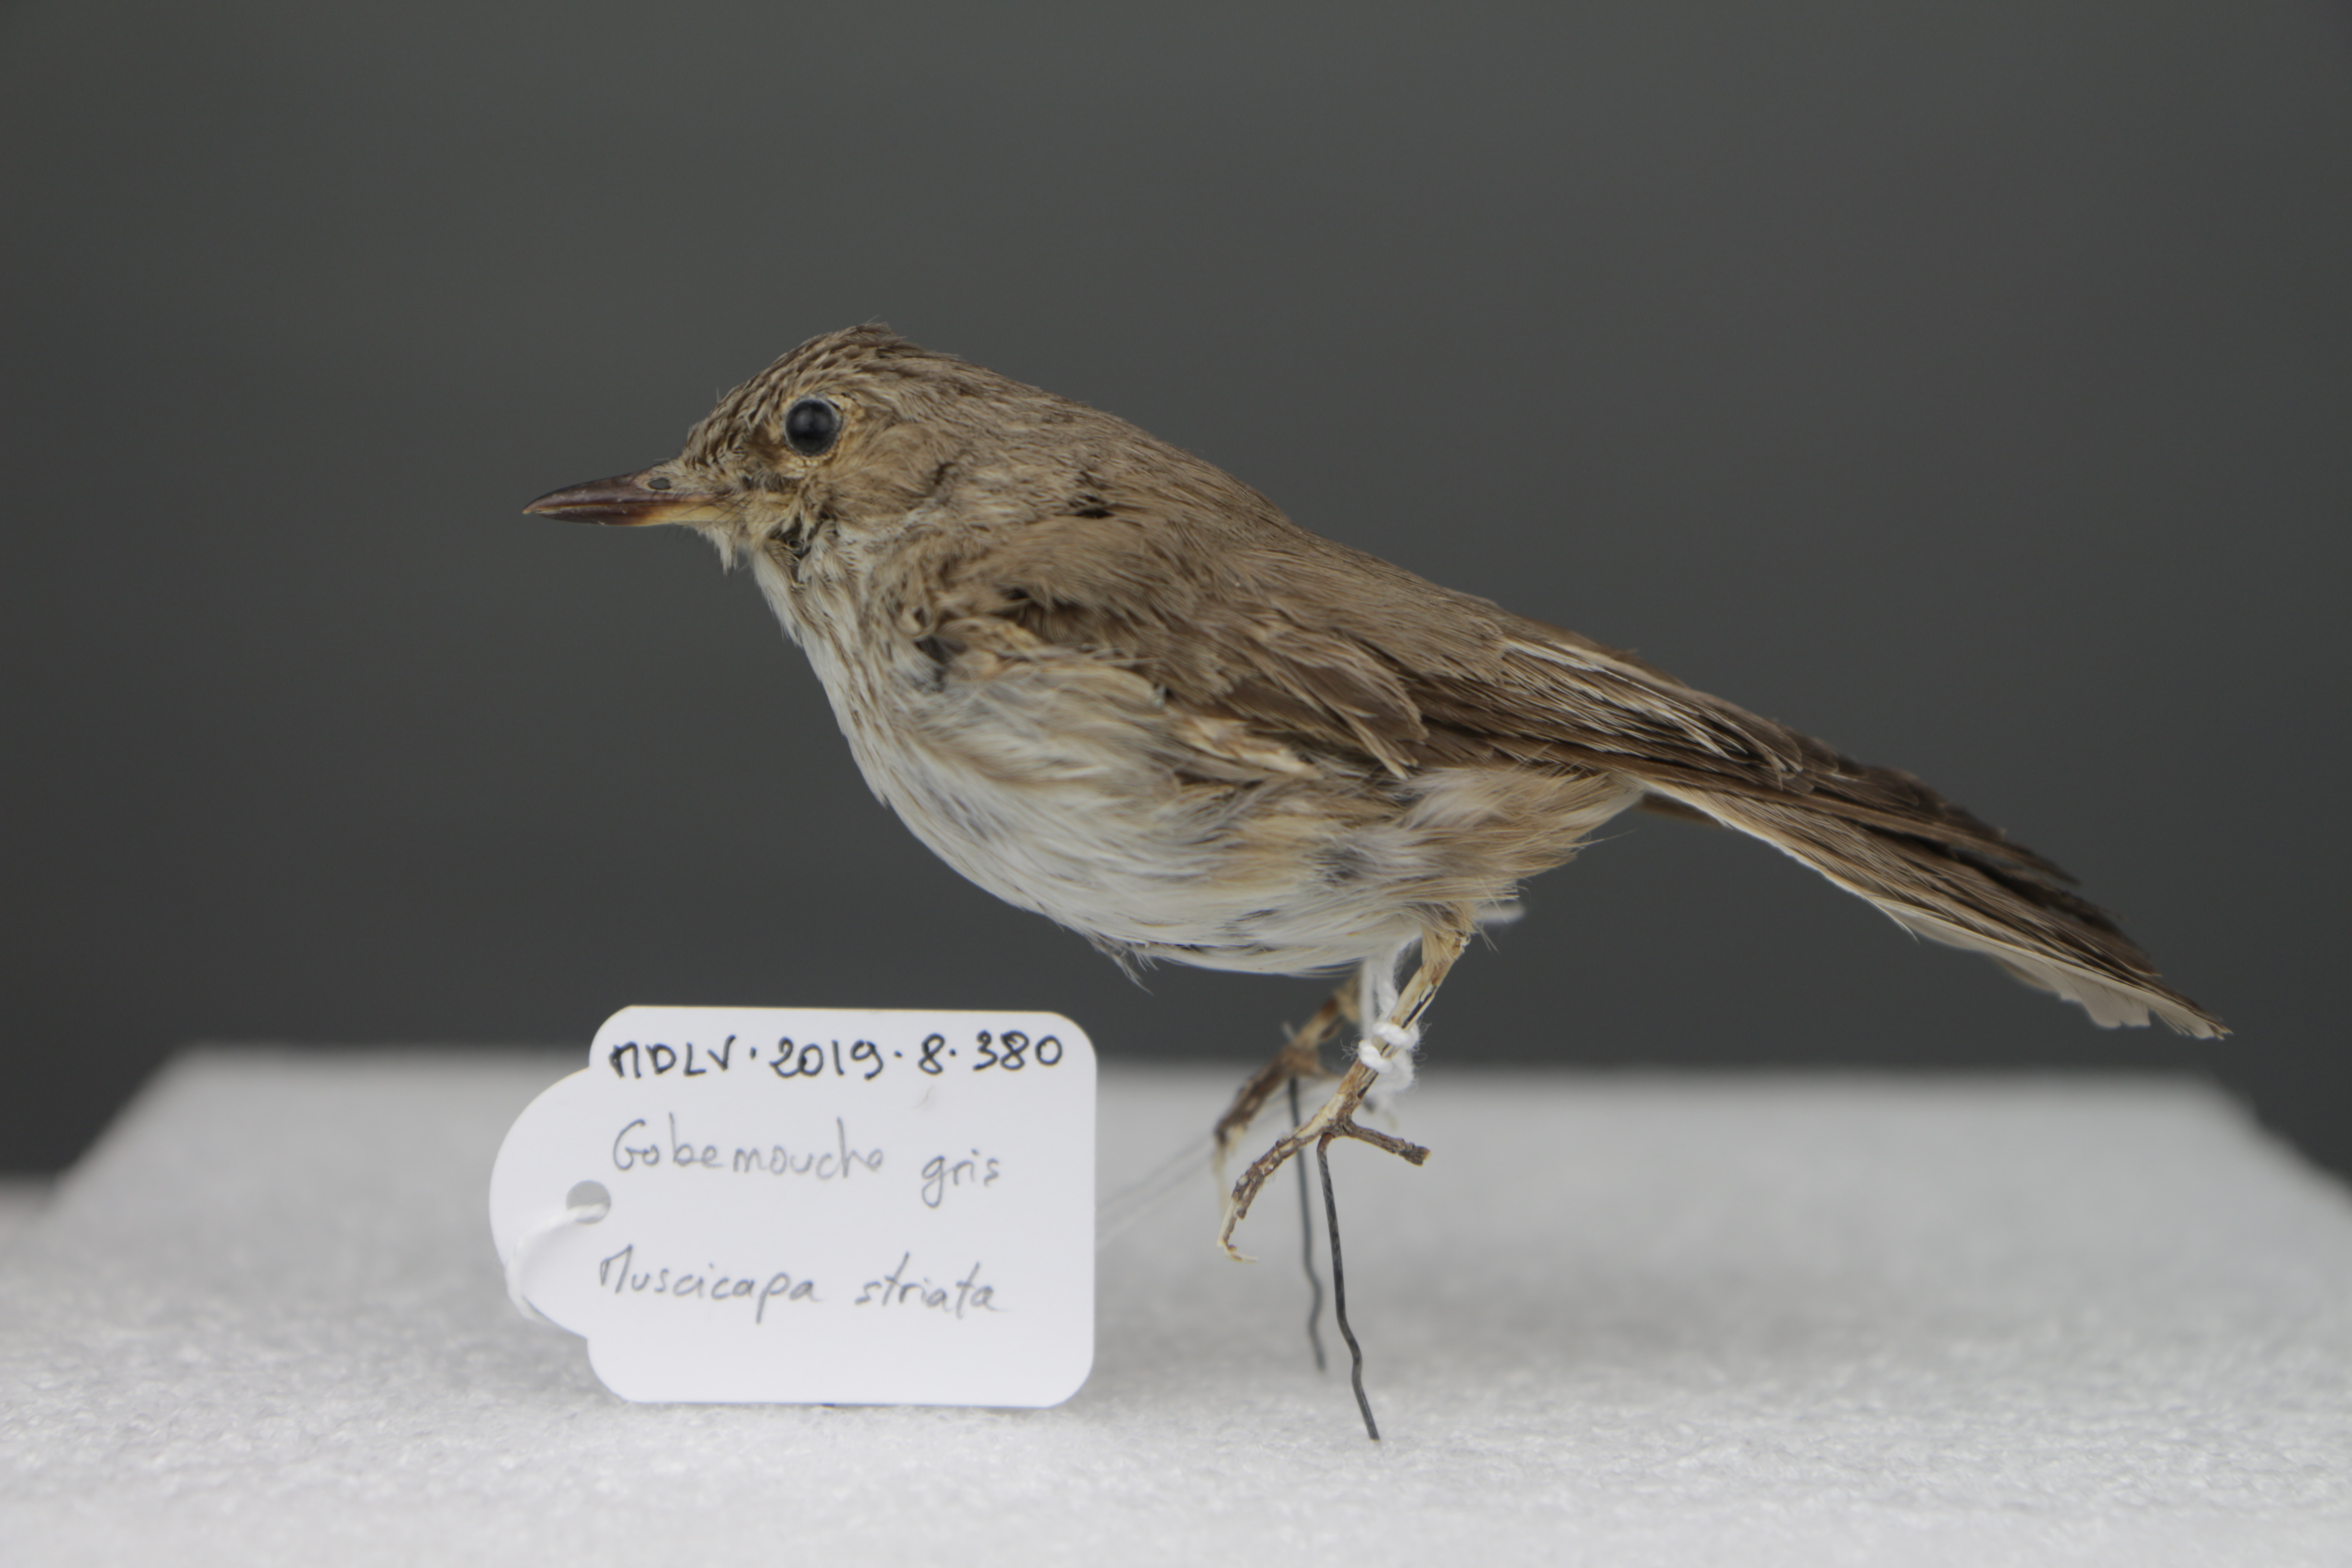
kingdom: Animalia
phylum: Chordata
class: Aves
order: Passeriformes
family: Muscicapidae
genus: Muscicapa
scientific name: Muscicapa striata
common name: Spotted flycatcher
